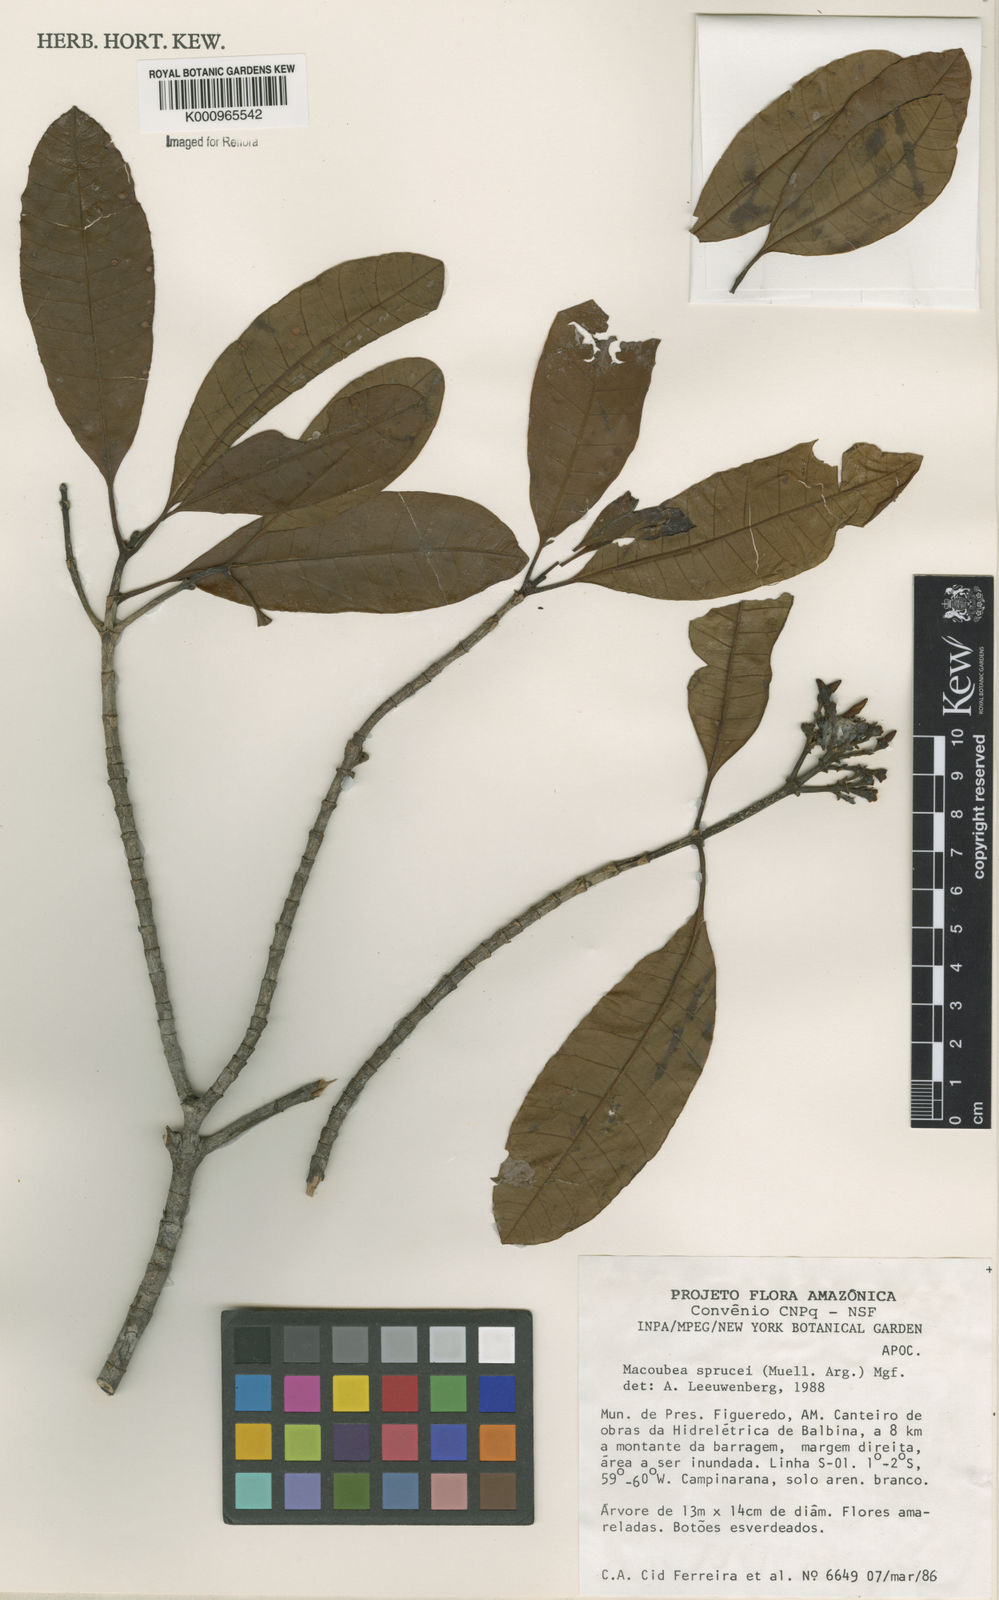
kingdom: Plantae
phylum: Tracheophyta
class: Magnoliopsida
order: Gentianales
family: Apocynaceae
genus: Macoubea
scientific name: Macoubea
